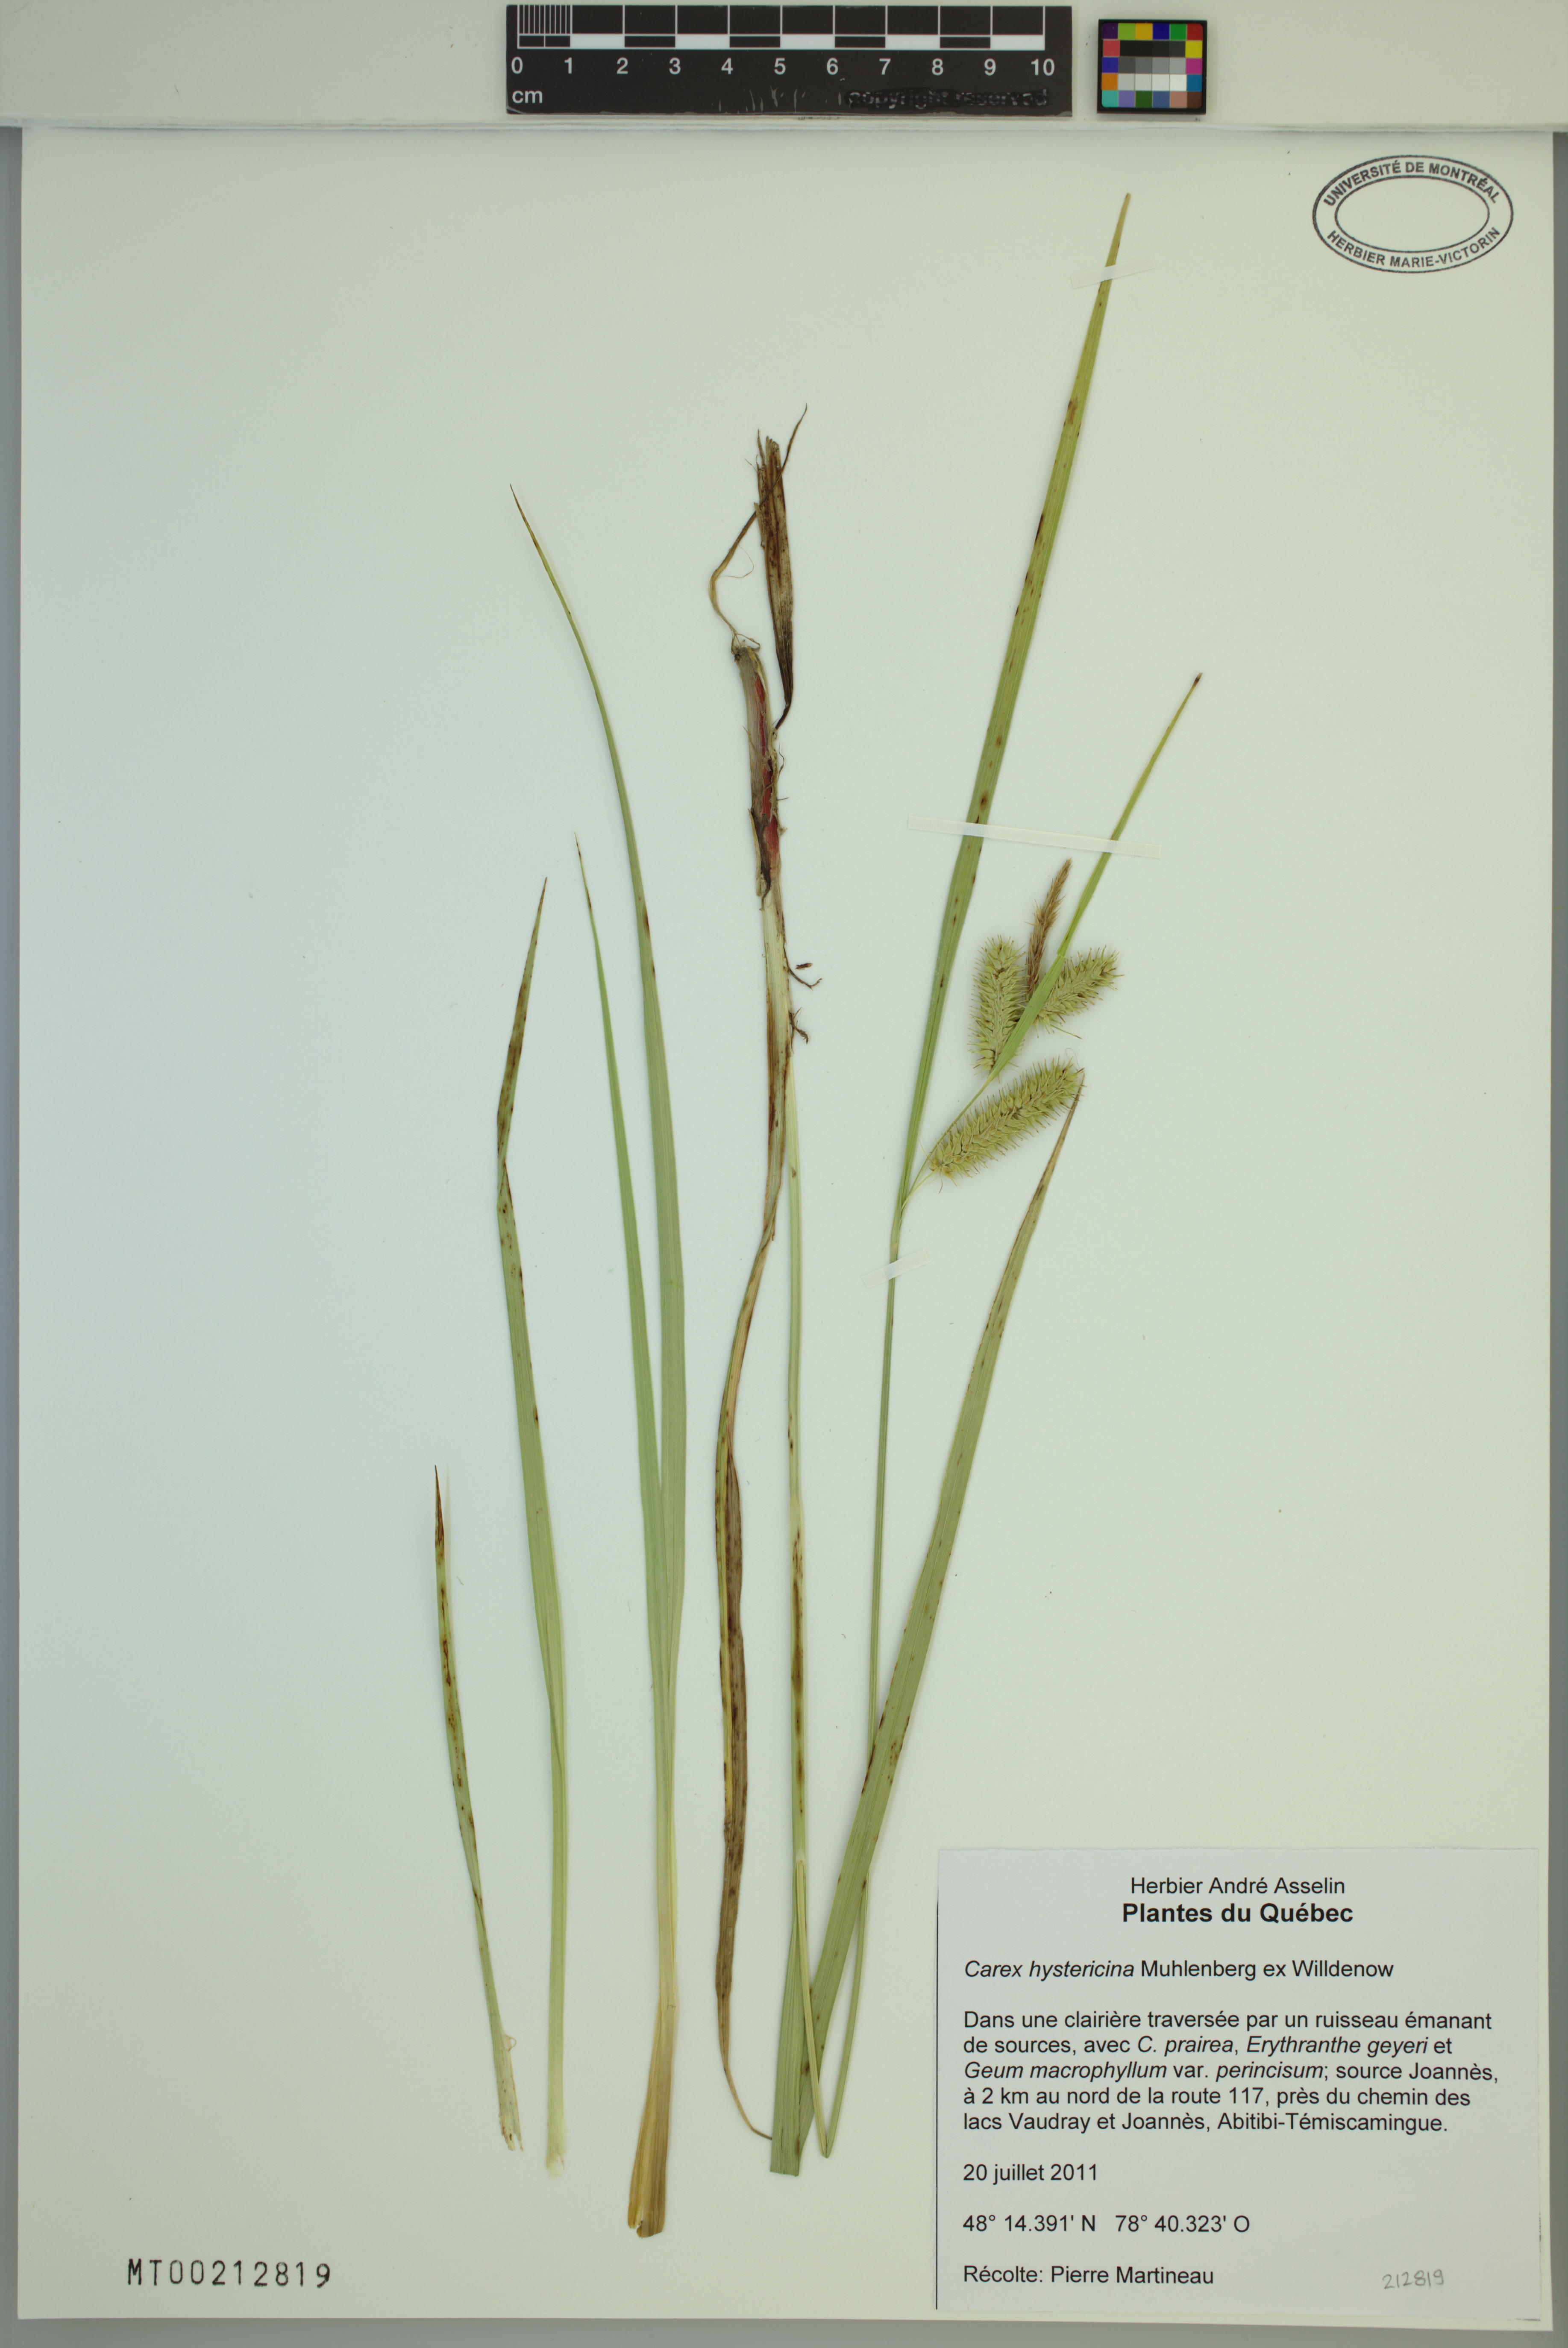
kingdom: Plantae
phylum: Tracheophyta
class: Liliopsida
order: Poales
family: Cyperaceae
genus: Carex
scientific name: Carex hystericina
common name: Bottlebrush sedge
